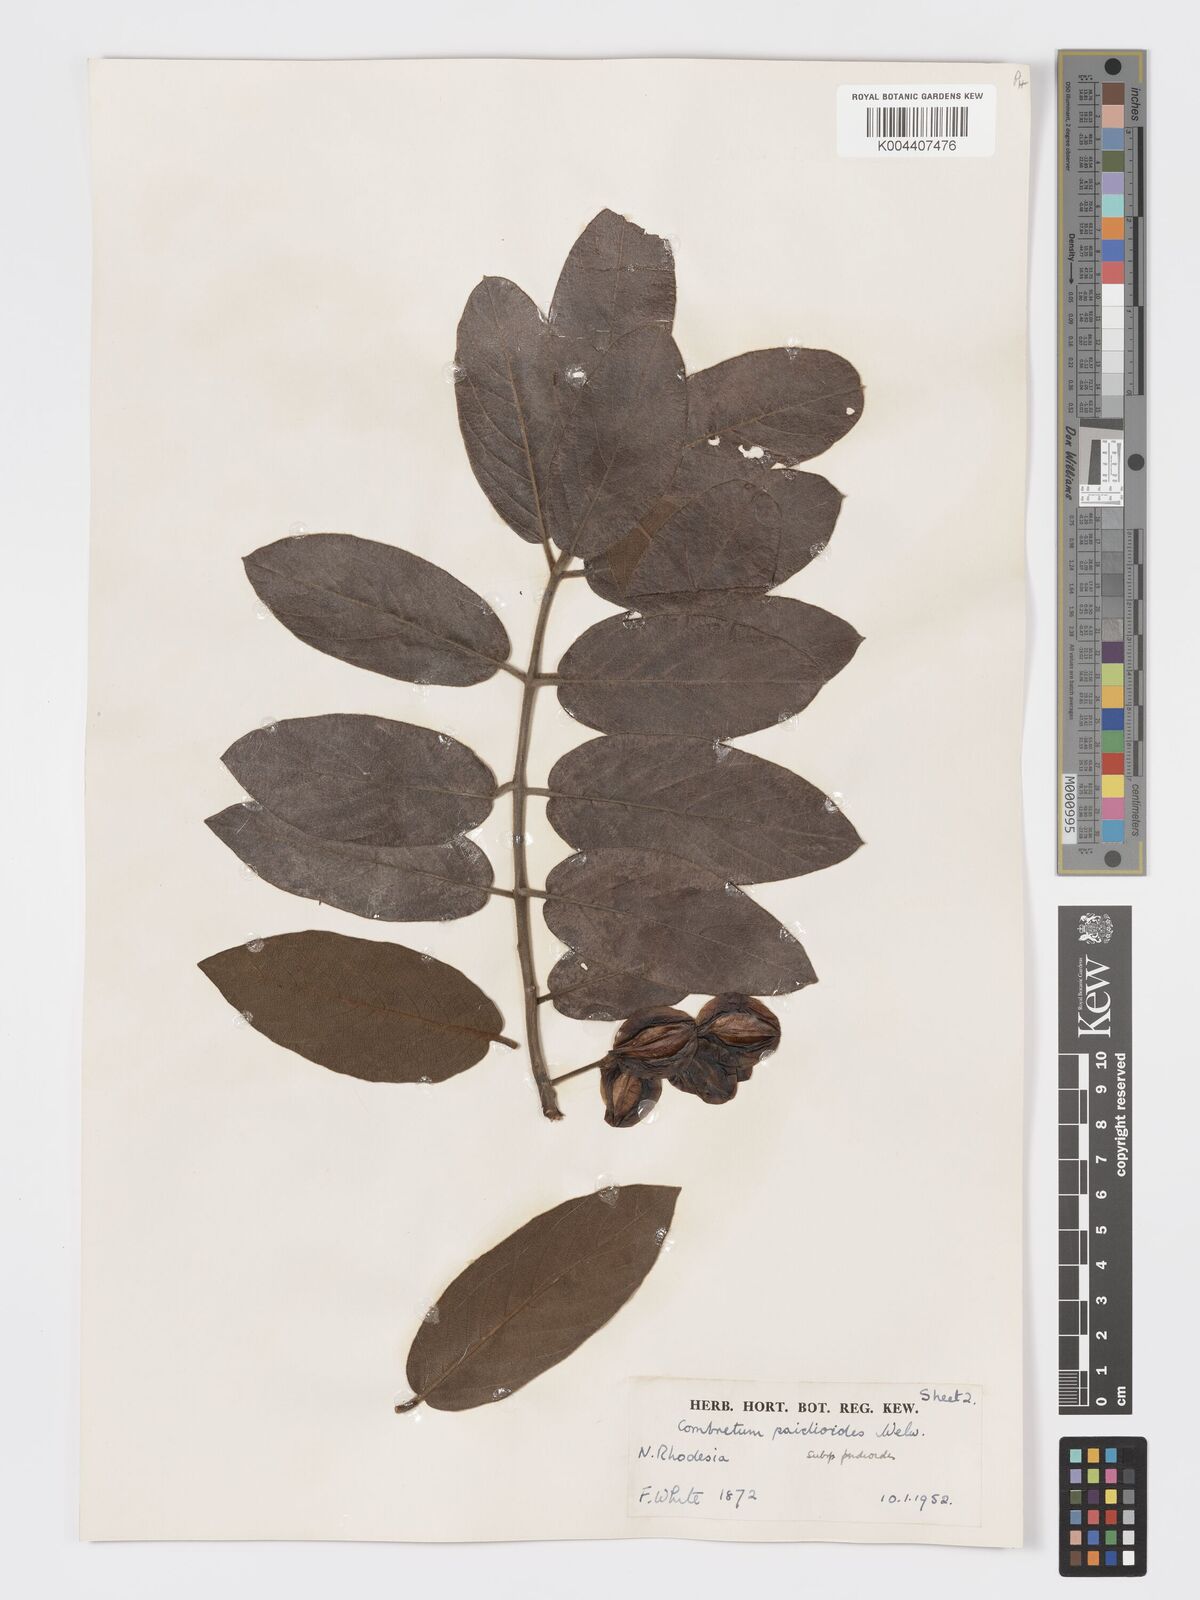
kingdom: Plantae
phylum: Tracheophyta
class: Magnoliopsida
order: Myrtales
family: Combretaceae
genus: Combretum
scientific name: Combretum psidioides
